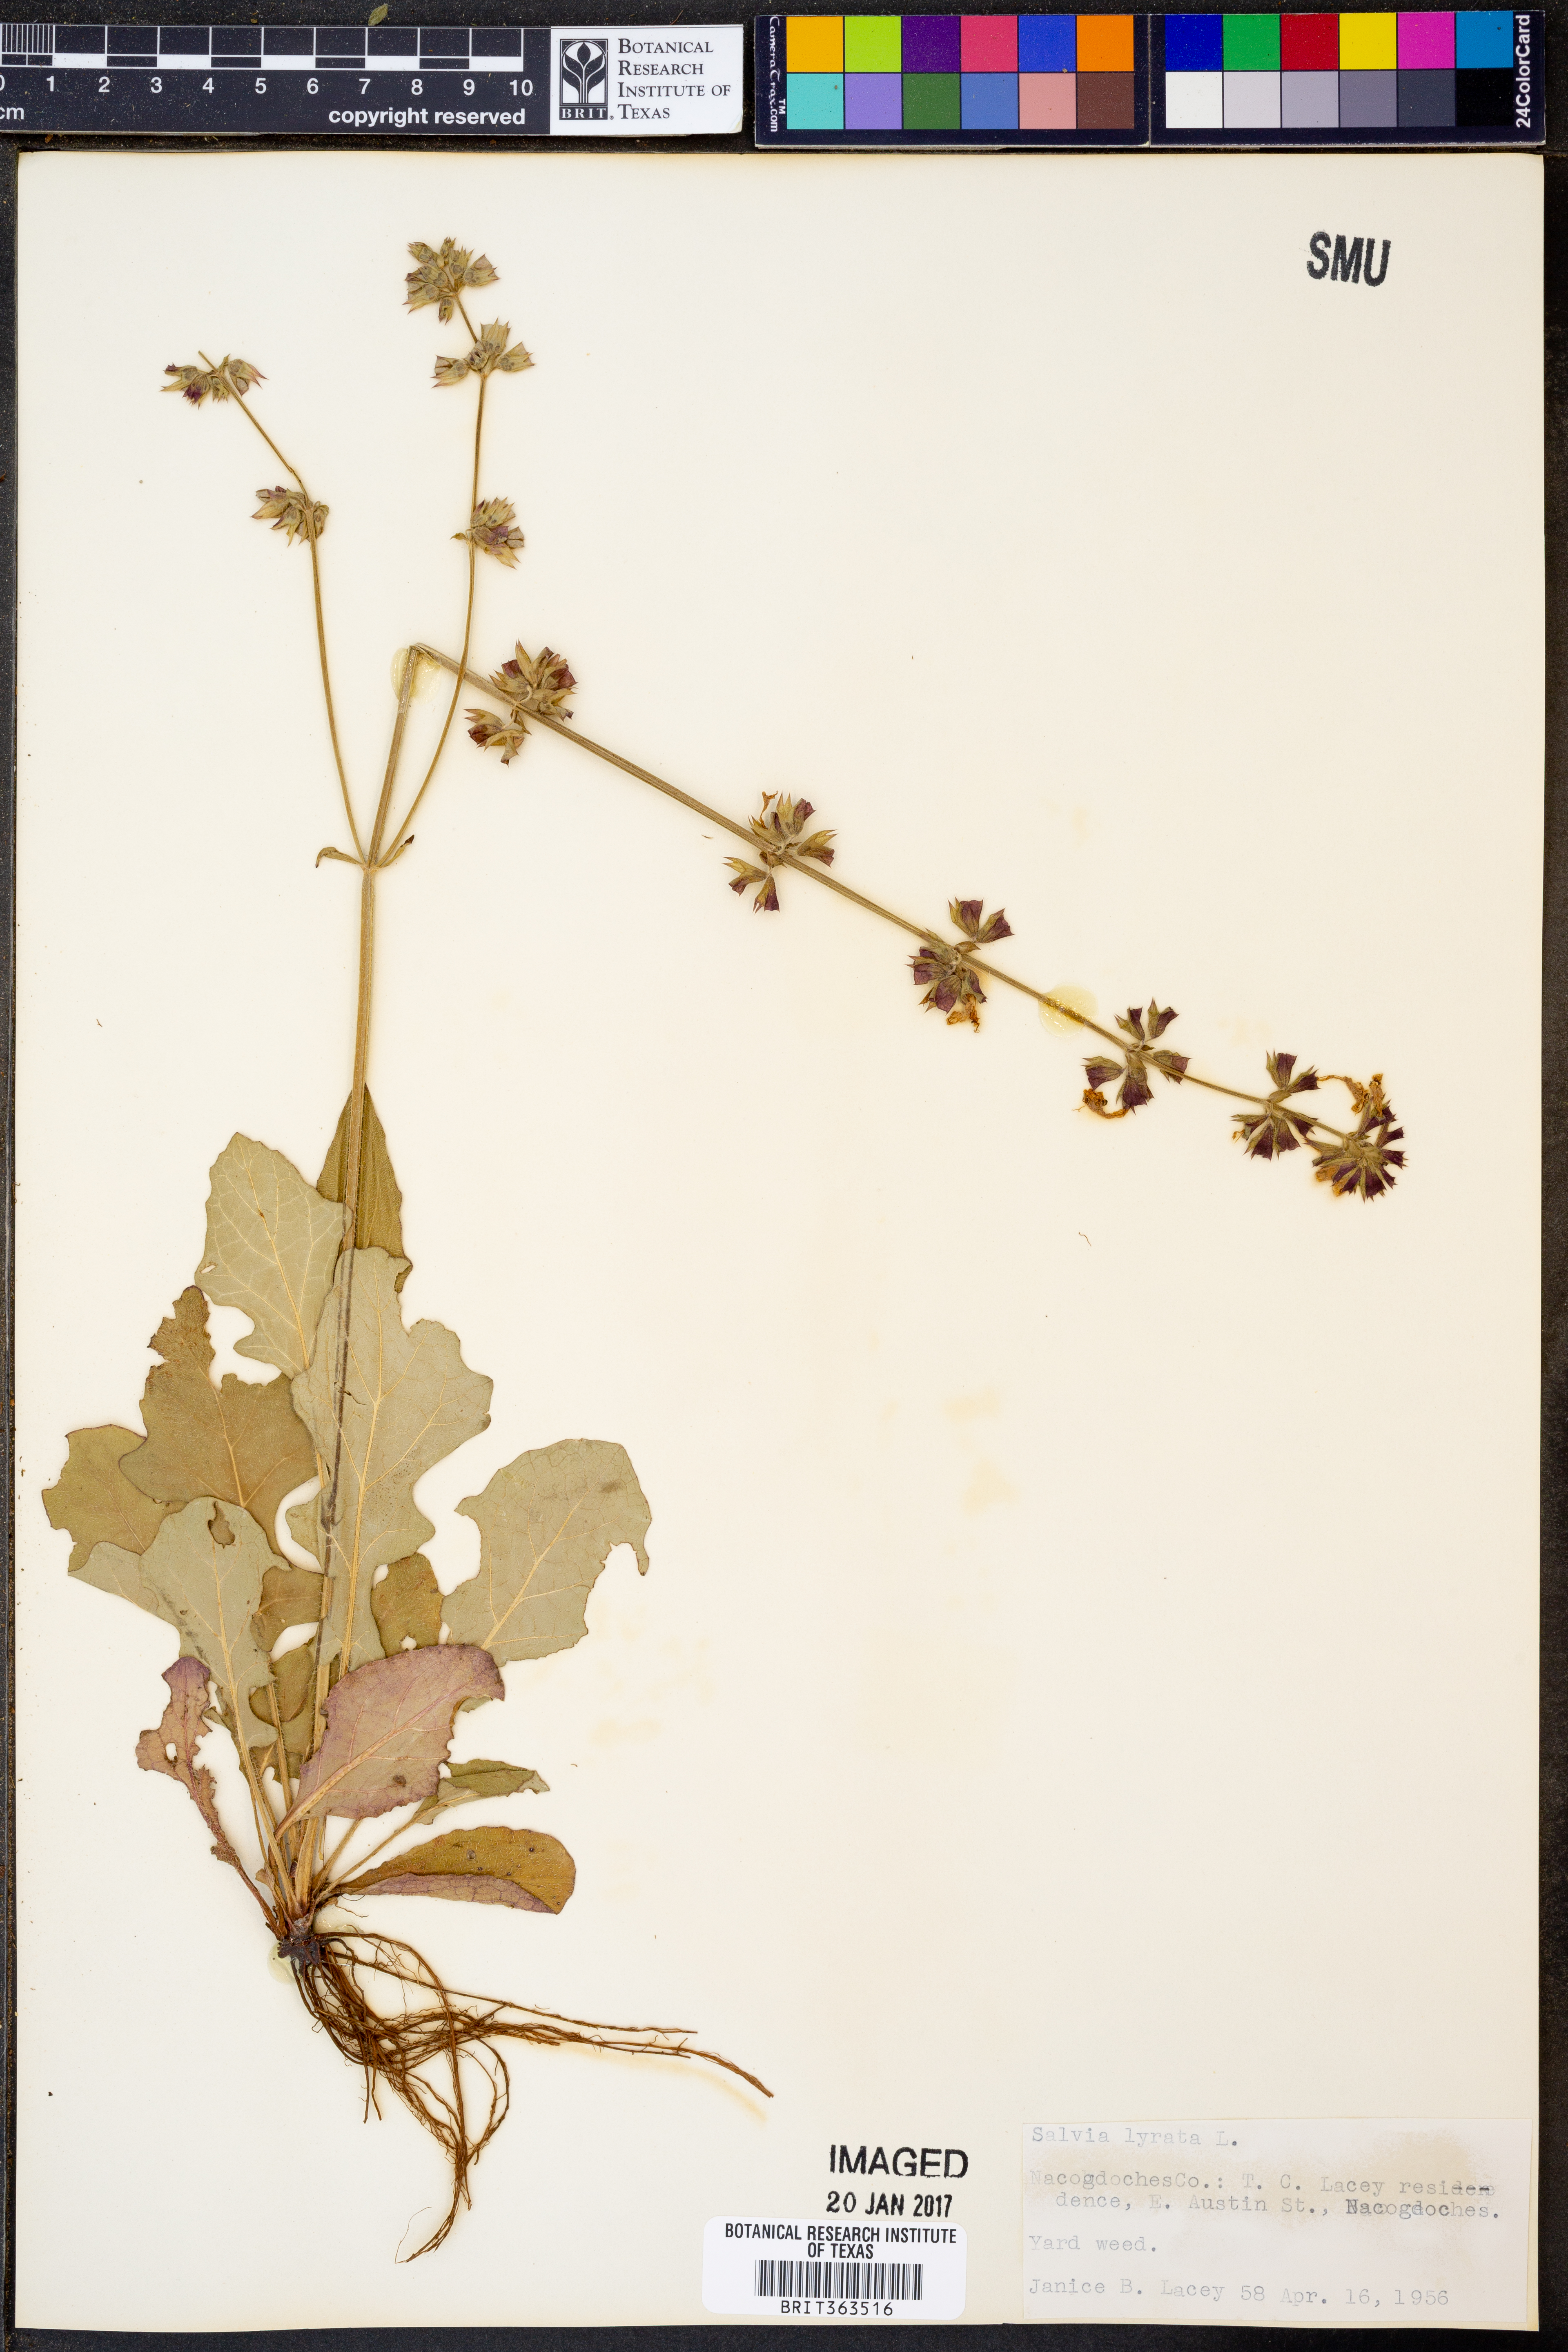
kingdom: Plantae
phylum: Tracheophyta
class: Magnoliopsida
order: Lamiales
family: Lamiaceae
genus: Salvia
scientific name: Salvia lyrata
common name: Cancerweed
